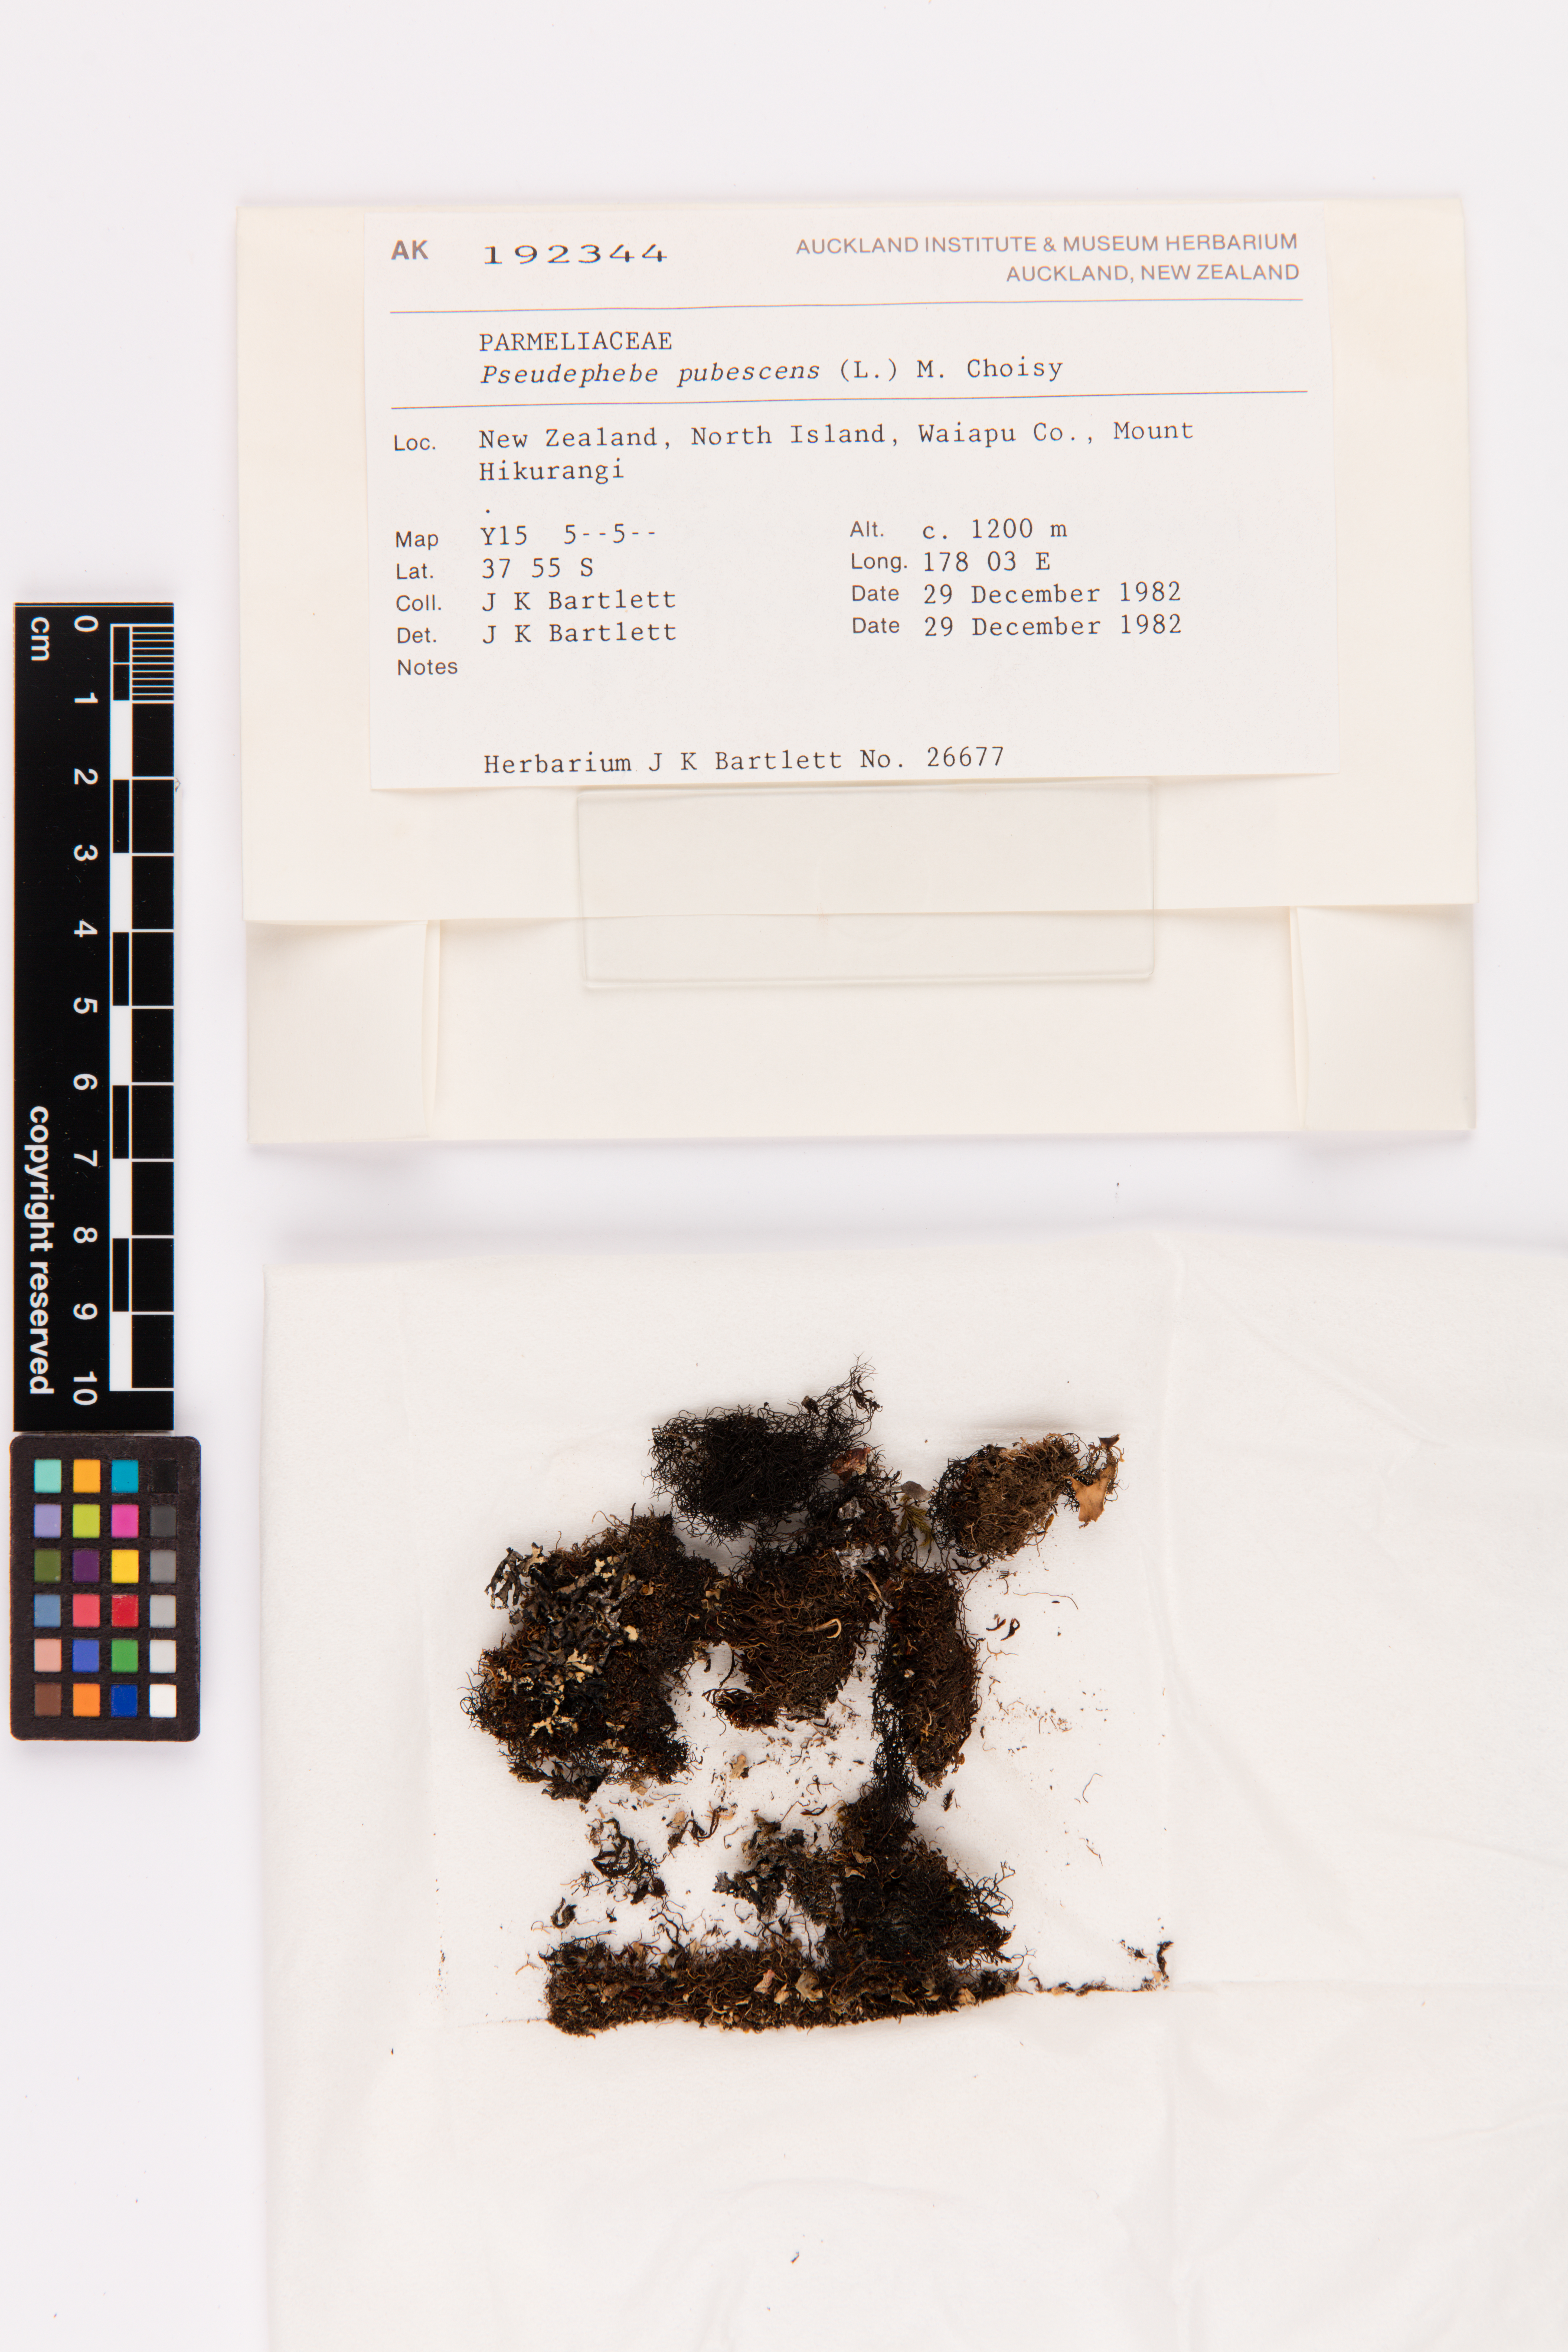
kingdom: Fungi
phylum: Ascomycota
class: Lecanoromycetes
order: Lecanorales
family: Parmeliaceae
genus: Pseudephebe
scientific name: Pseudephebe pubescens
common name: Fine rockwool lichen
